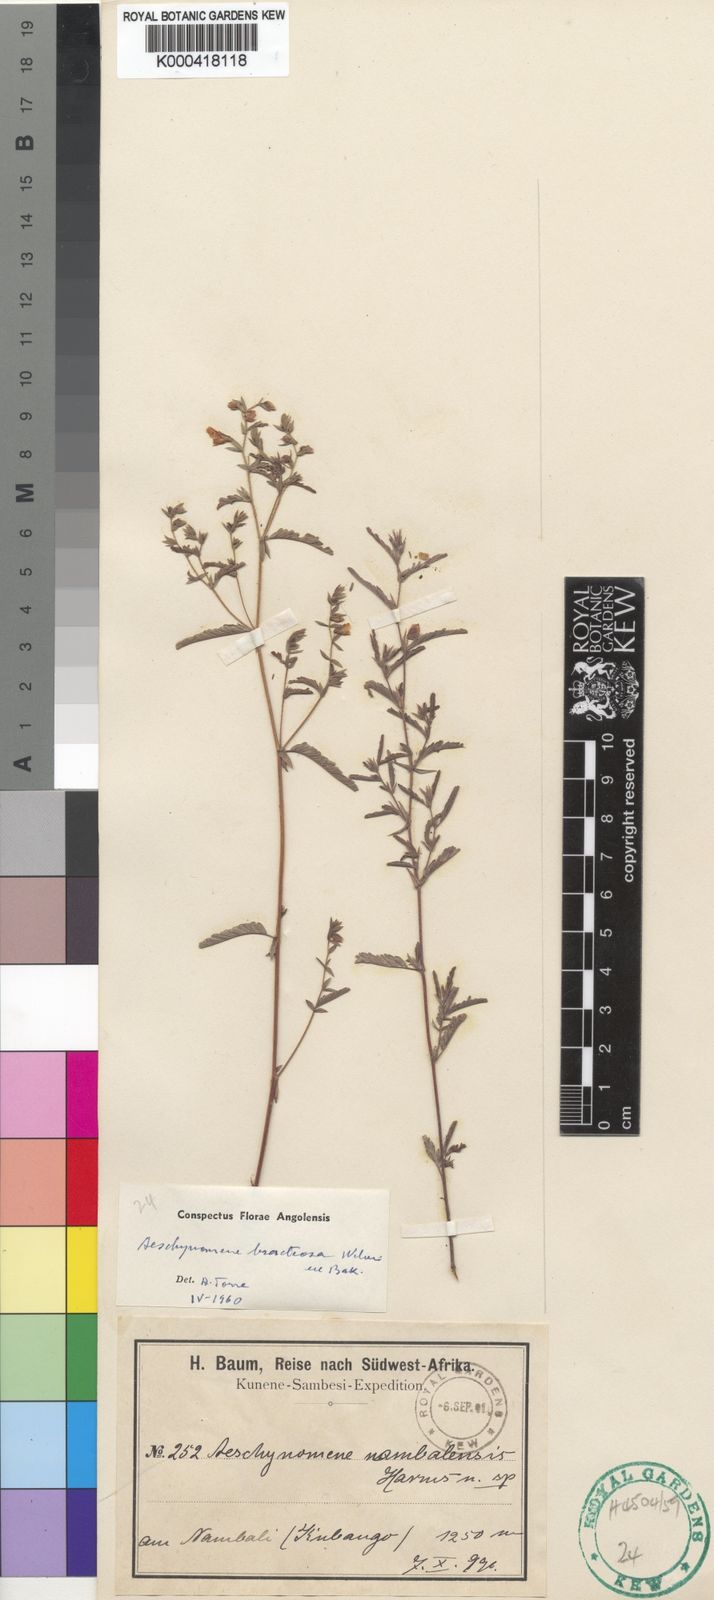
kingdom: Plantae
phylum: Tracheophyta
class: Magnoliopsida
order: Fabales
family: Fabaceae
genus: Aeschynomene
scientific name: Aeschynomene bracteosa
